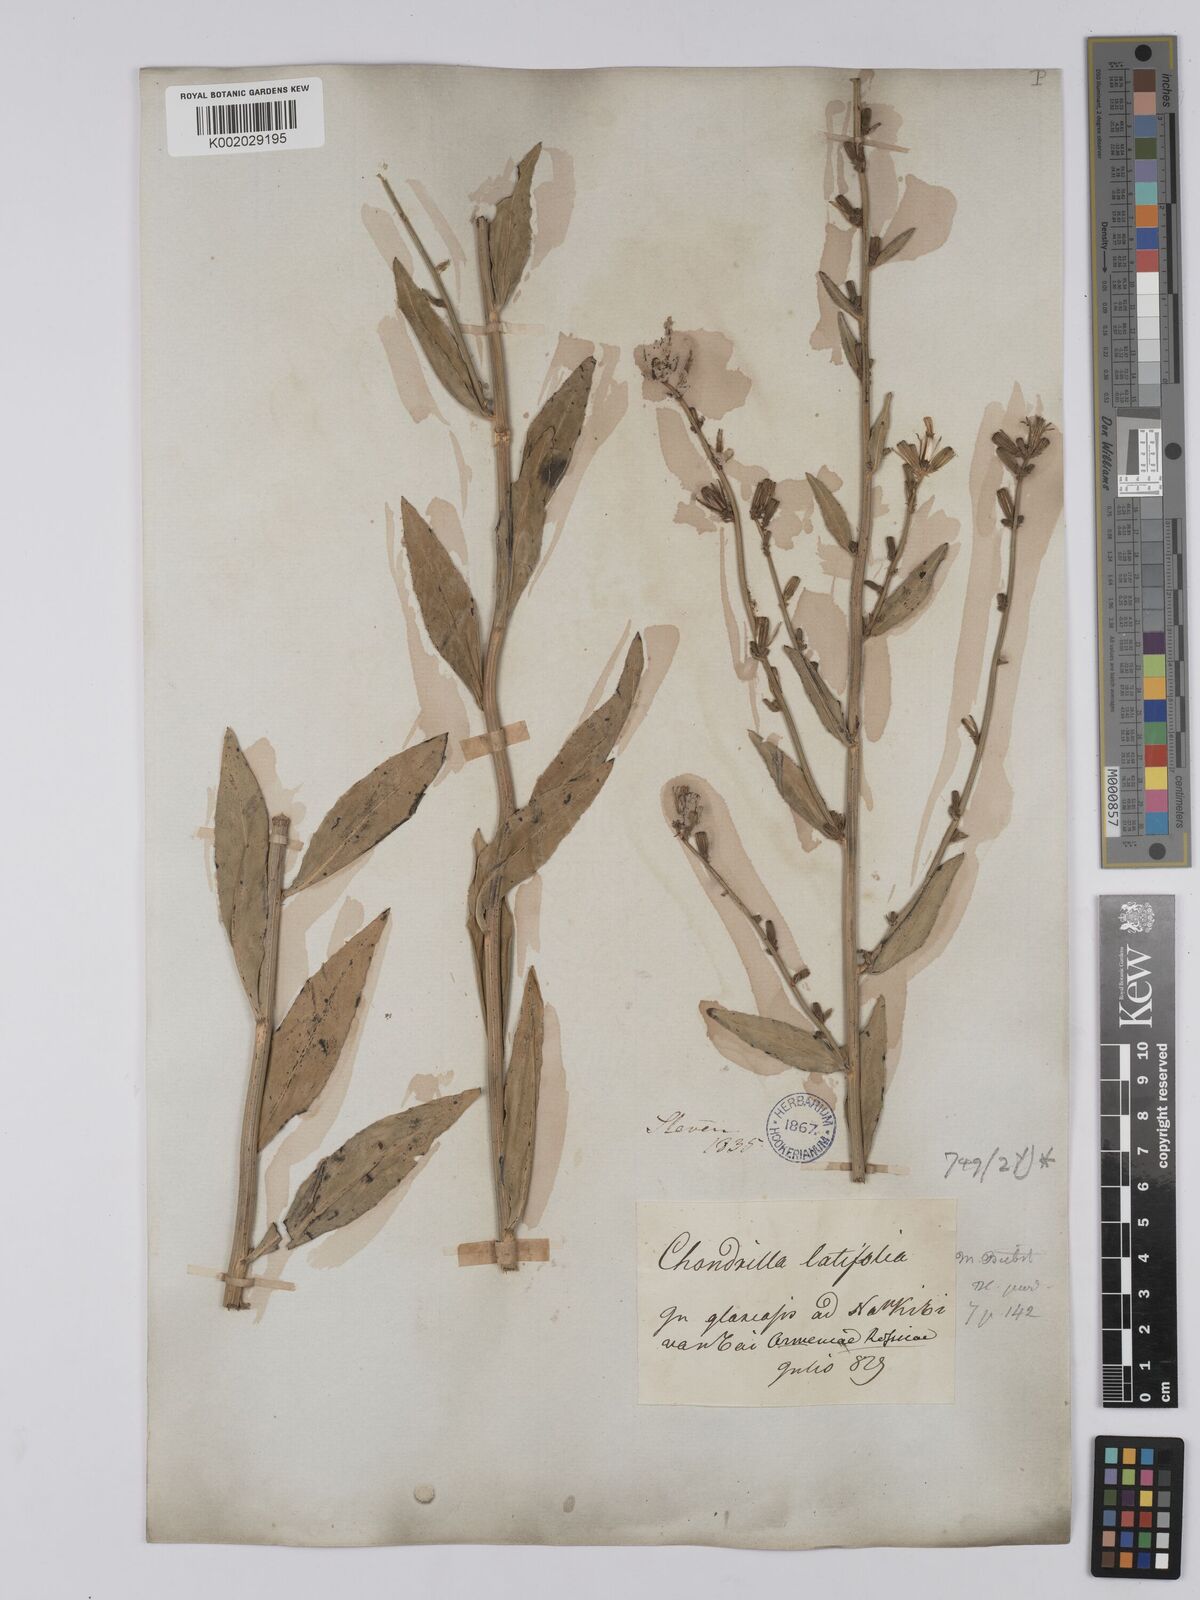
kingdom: Plantae
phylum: Tracheophyta
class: Magnoliopsida
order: Asterales
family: Asteraceae
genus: Chondrilla
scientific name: Chondrilla latifolia
